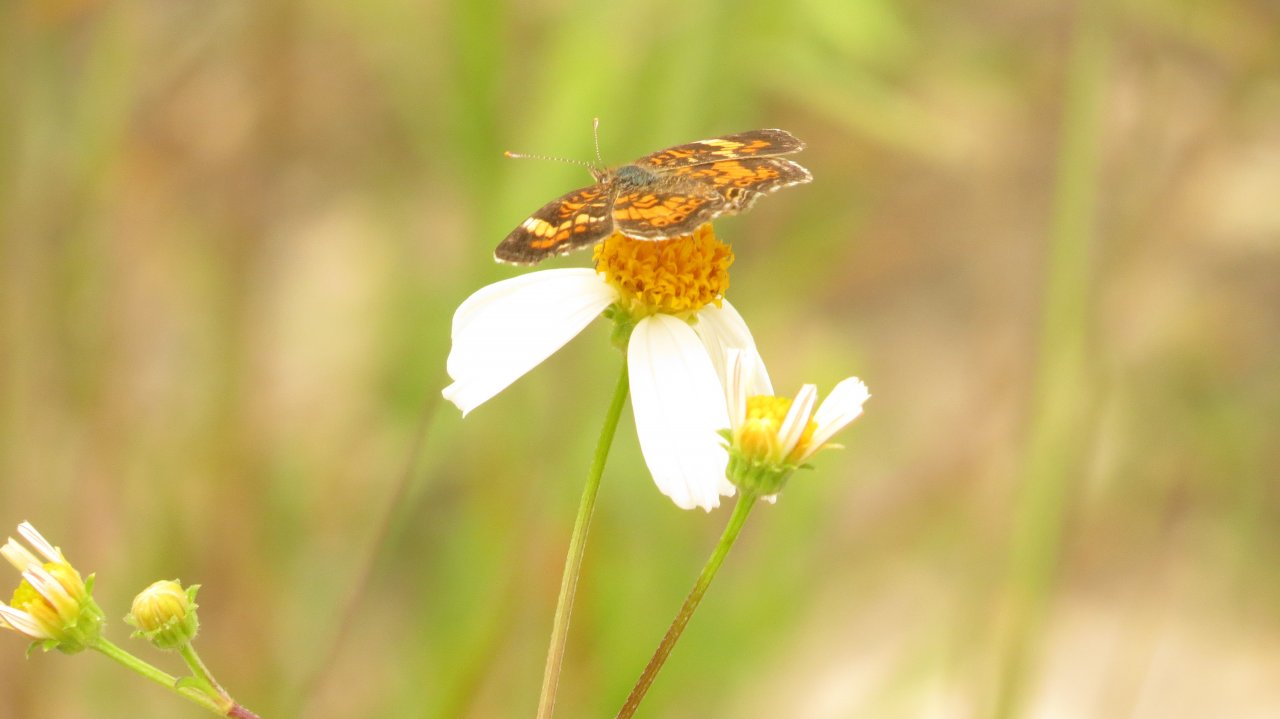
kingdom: Animalia
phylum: Arthropoda
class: Insecta
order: Lepidoptera
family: Nymphalidae
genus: Phyciodes
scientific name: Phyciodes phaon
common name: Phaon Crescent
